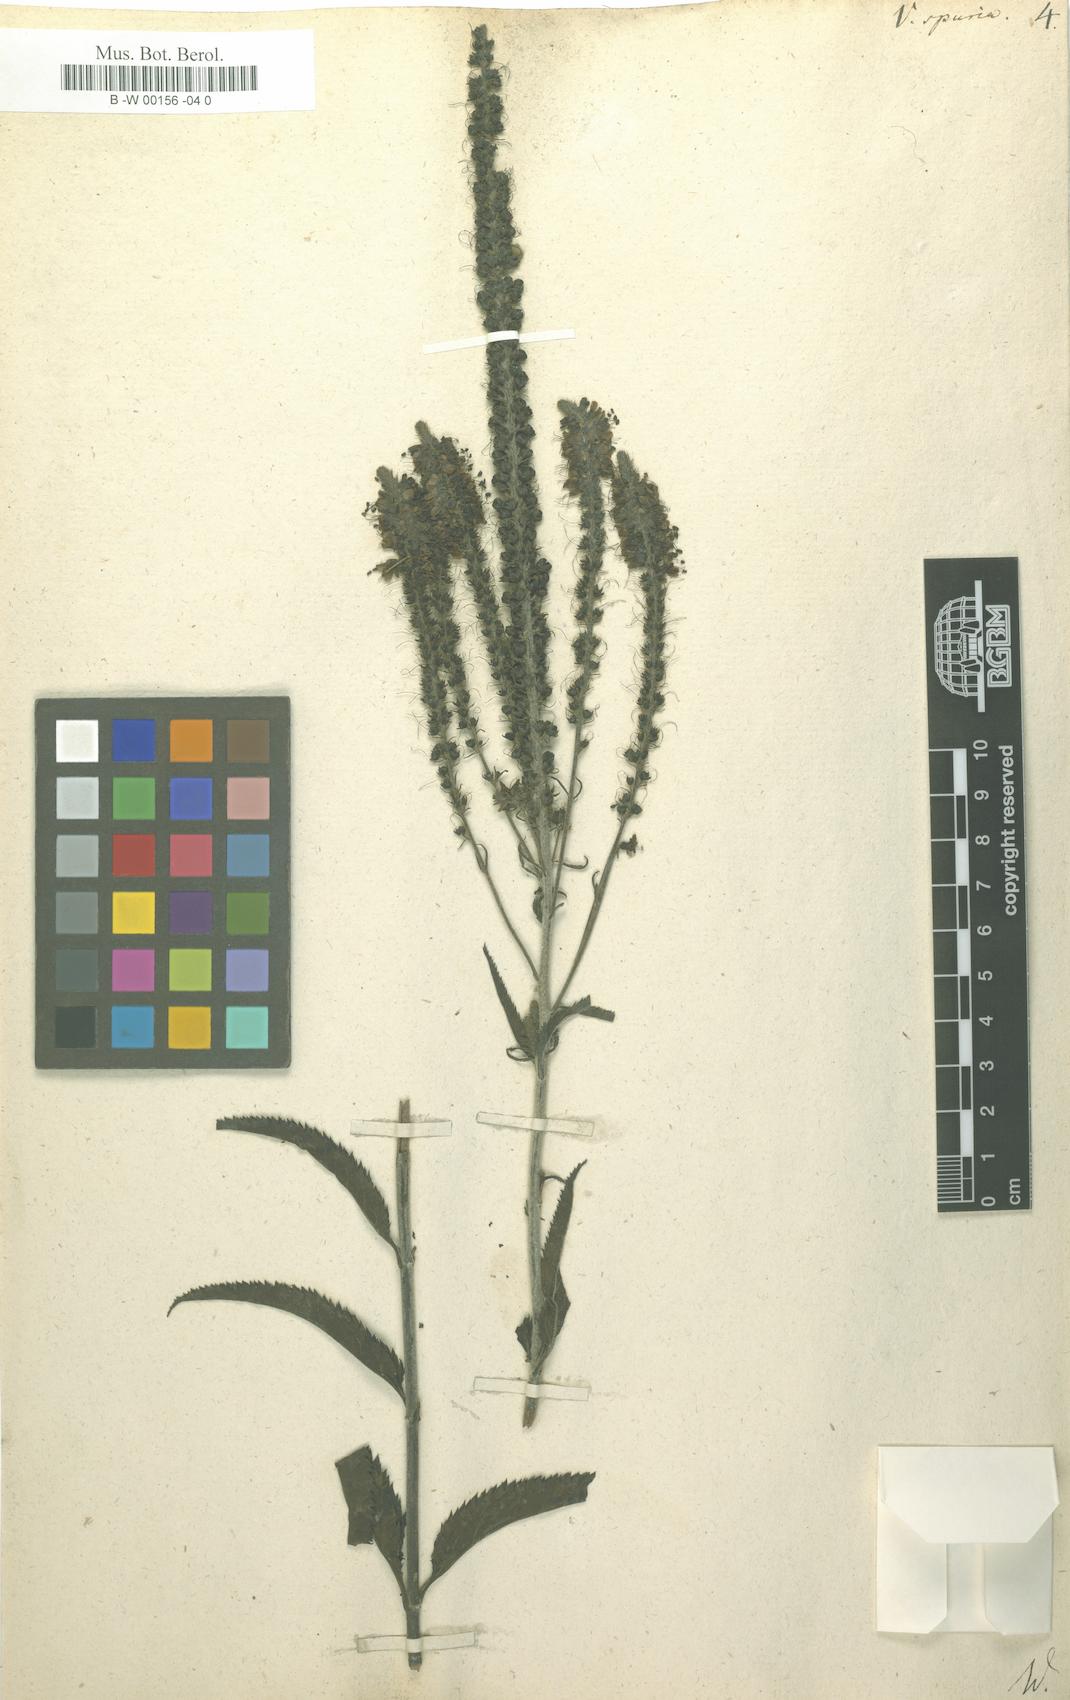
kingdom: Plantae
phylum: Tracheophyta
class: Magnoliopsida
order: Lamiales
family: Plantaginaceae
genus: Veronica
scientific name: Veronica spuria
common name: Bastard speedwell
